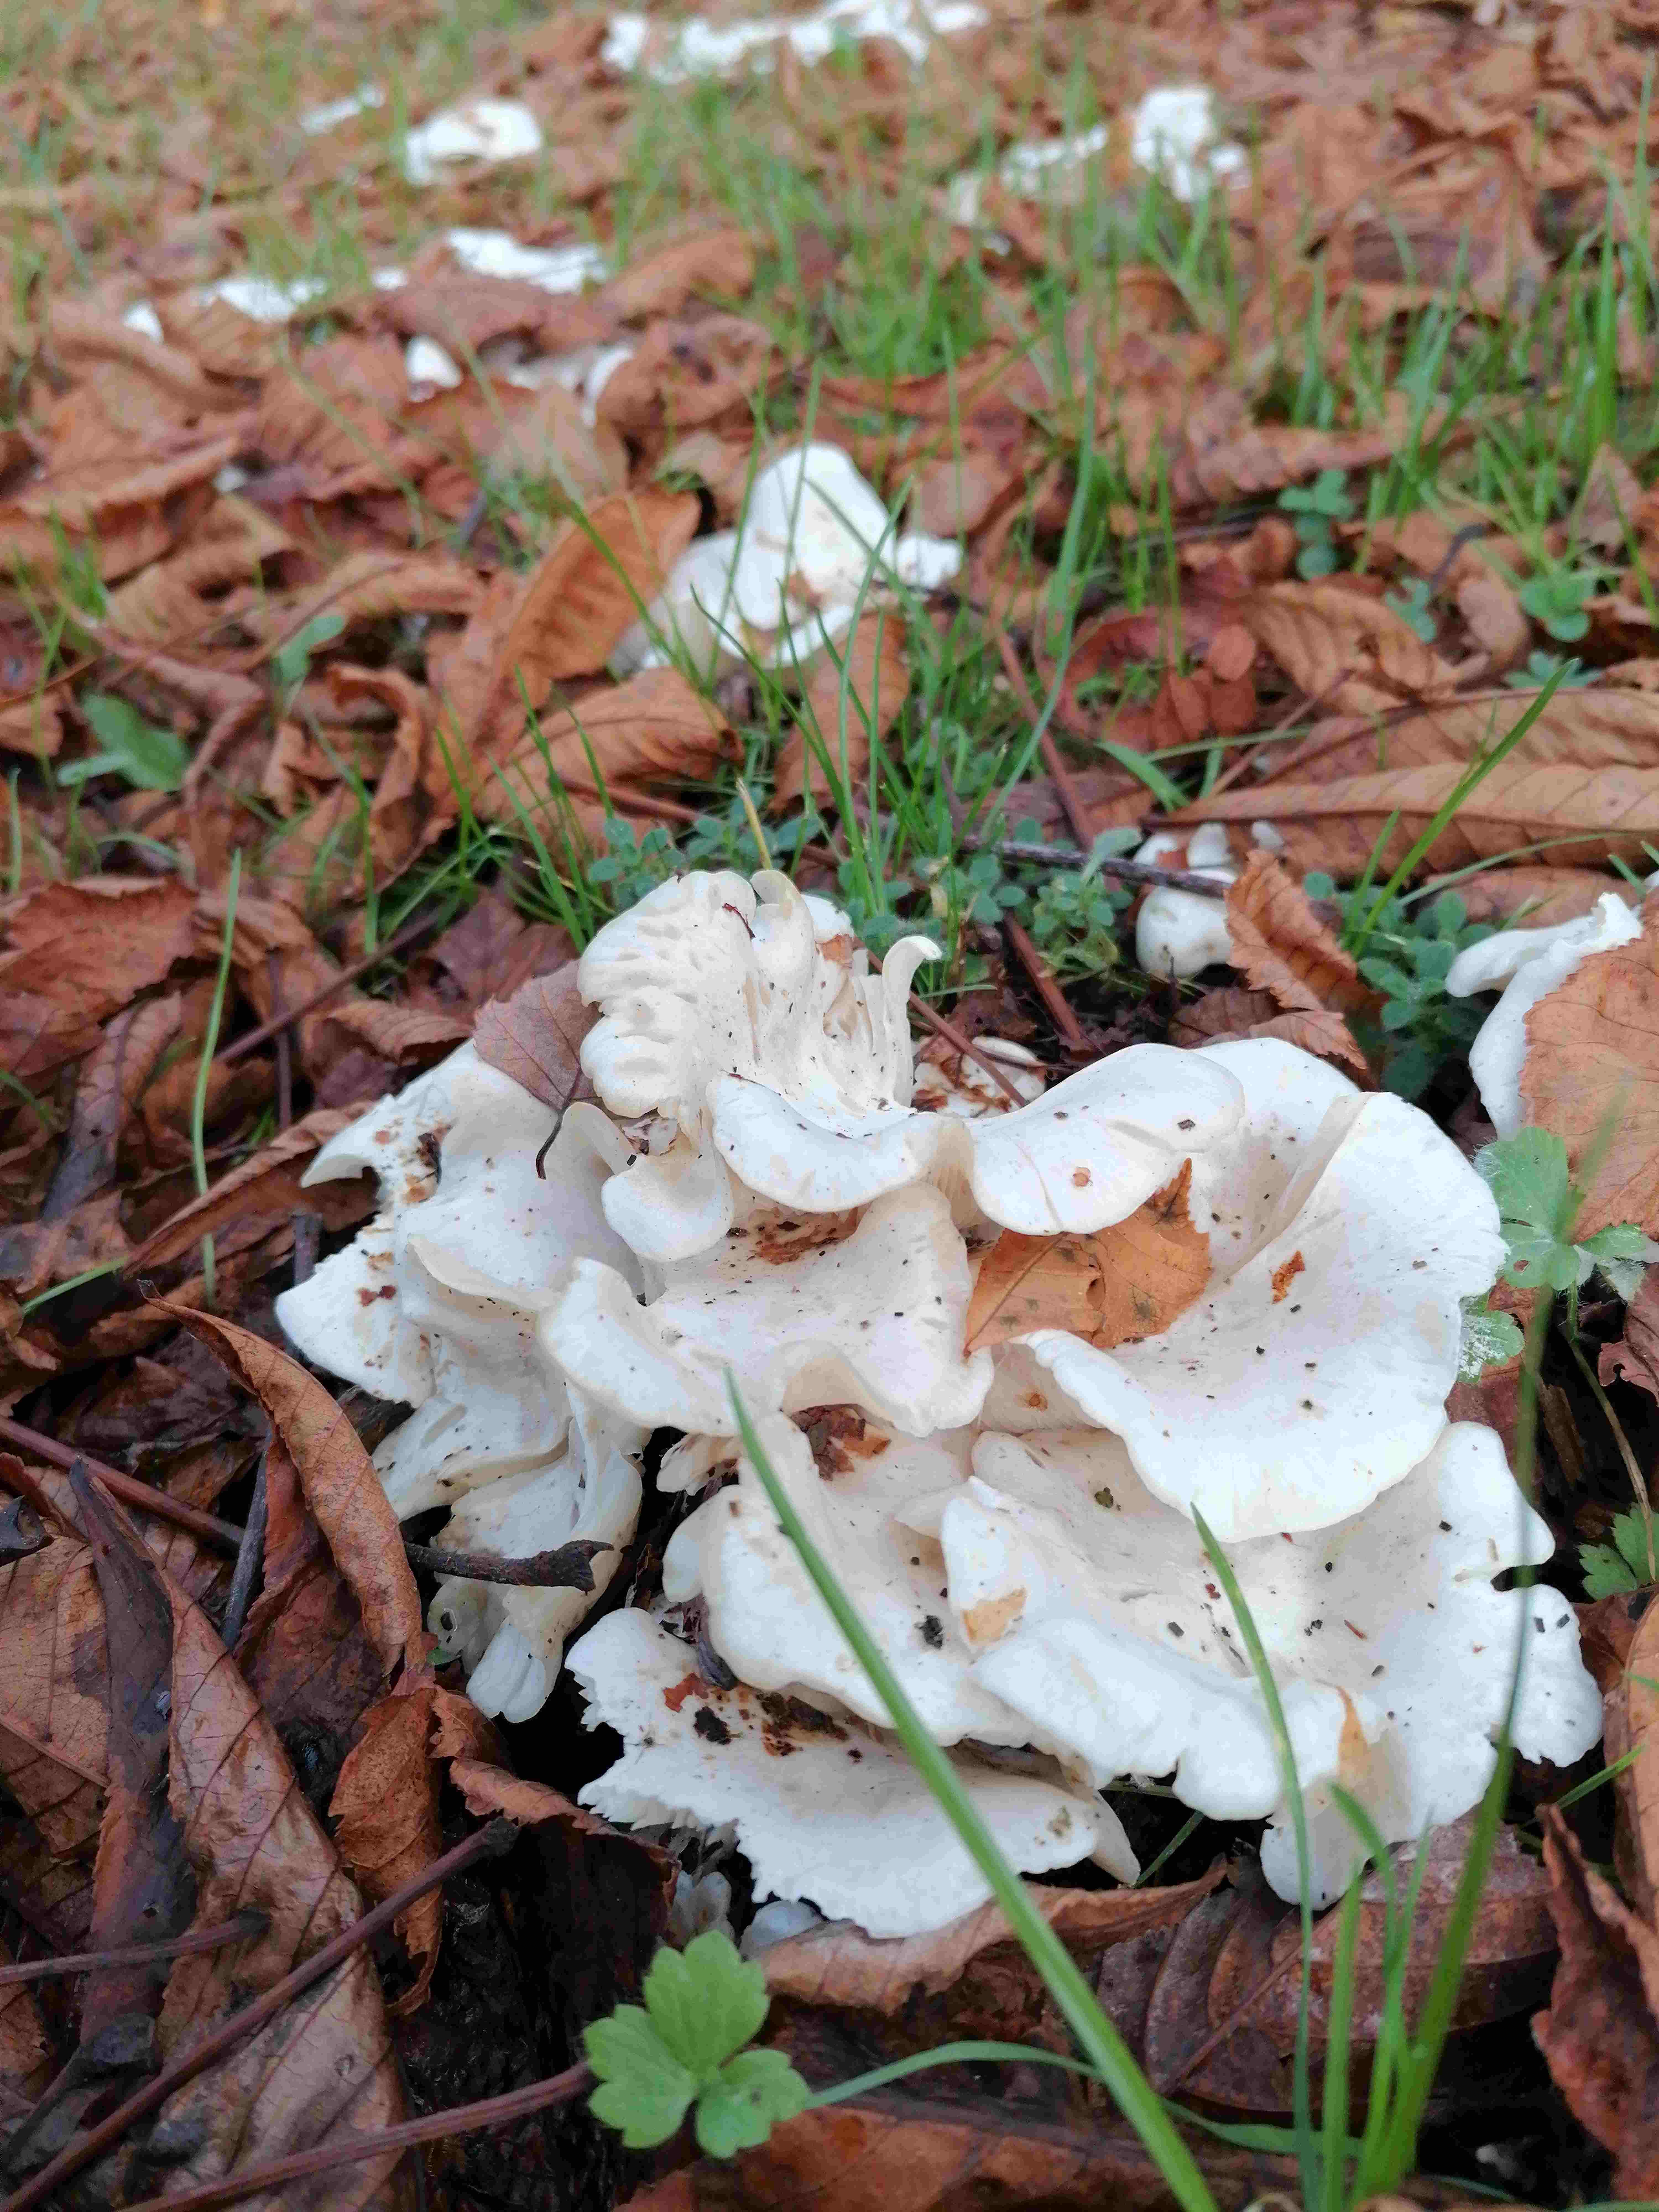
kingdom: Fungi
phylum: Basidiomycota
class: Agaricomycetes
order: Agaricales
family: Tricholomataceae
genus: Leucocybe
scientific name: Leucocybe connata
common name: knippe-tragthat
